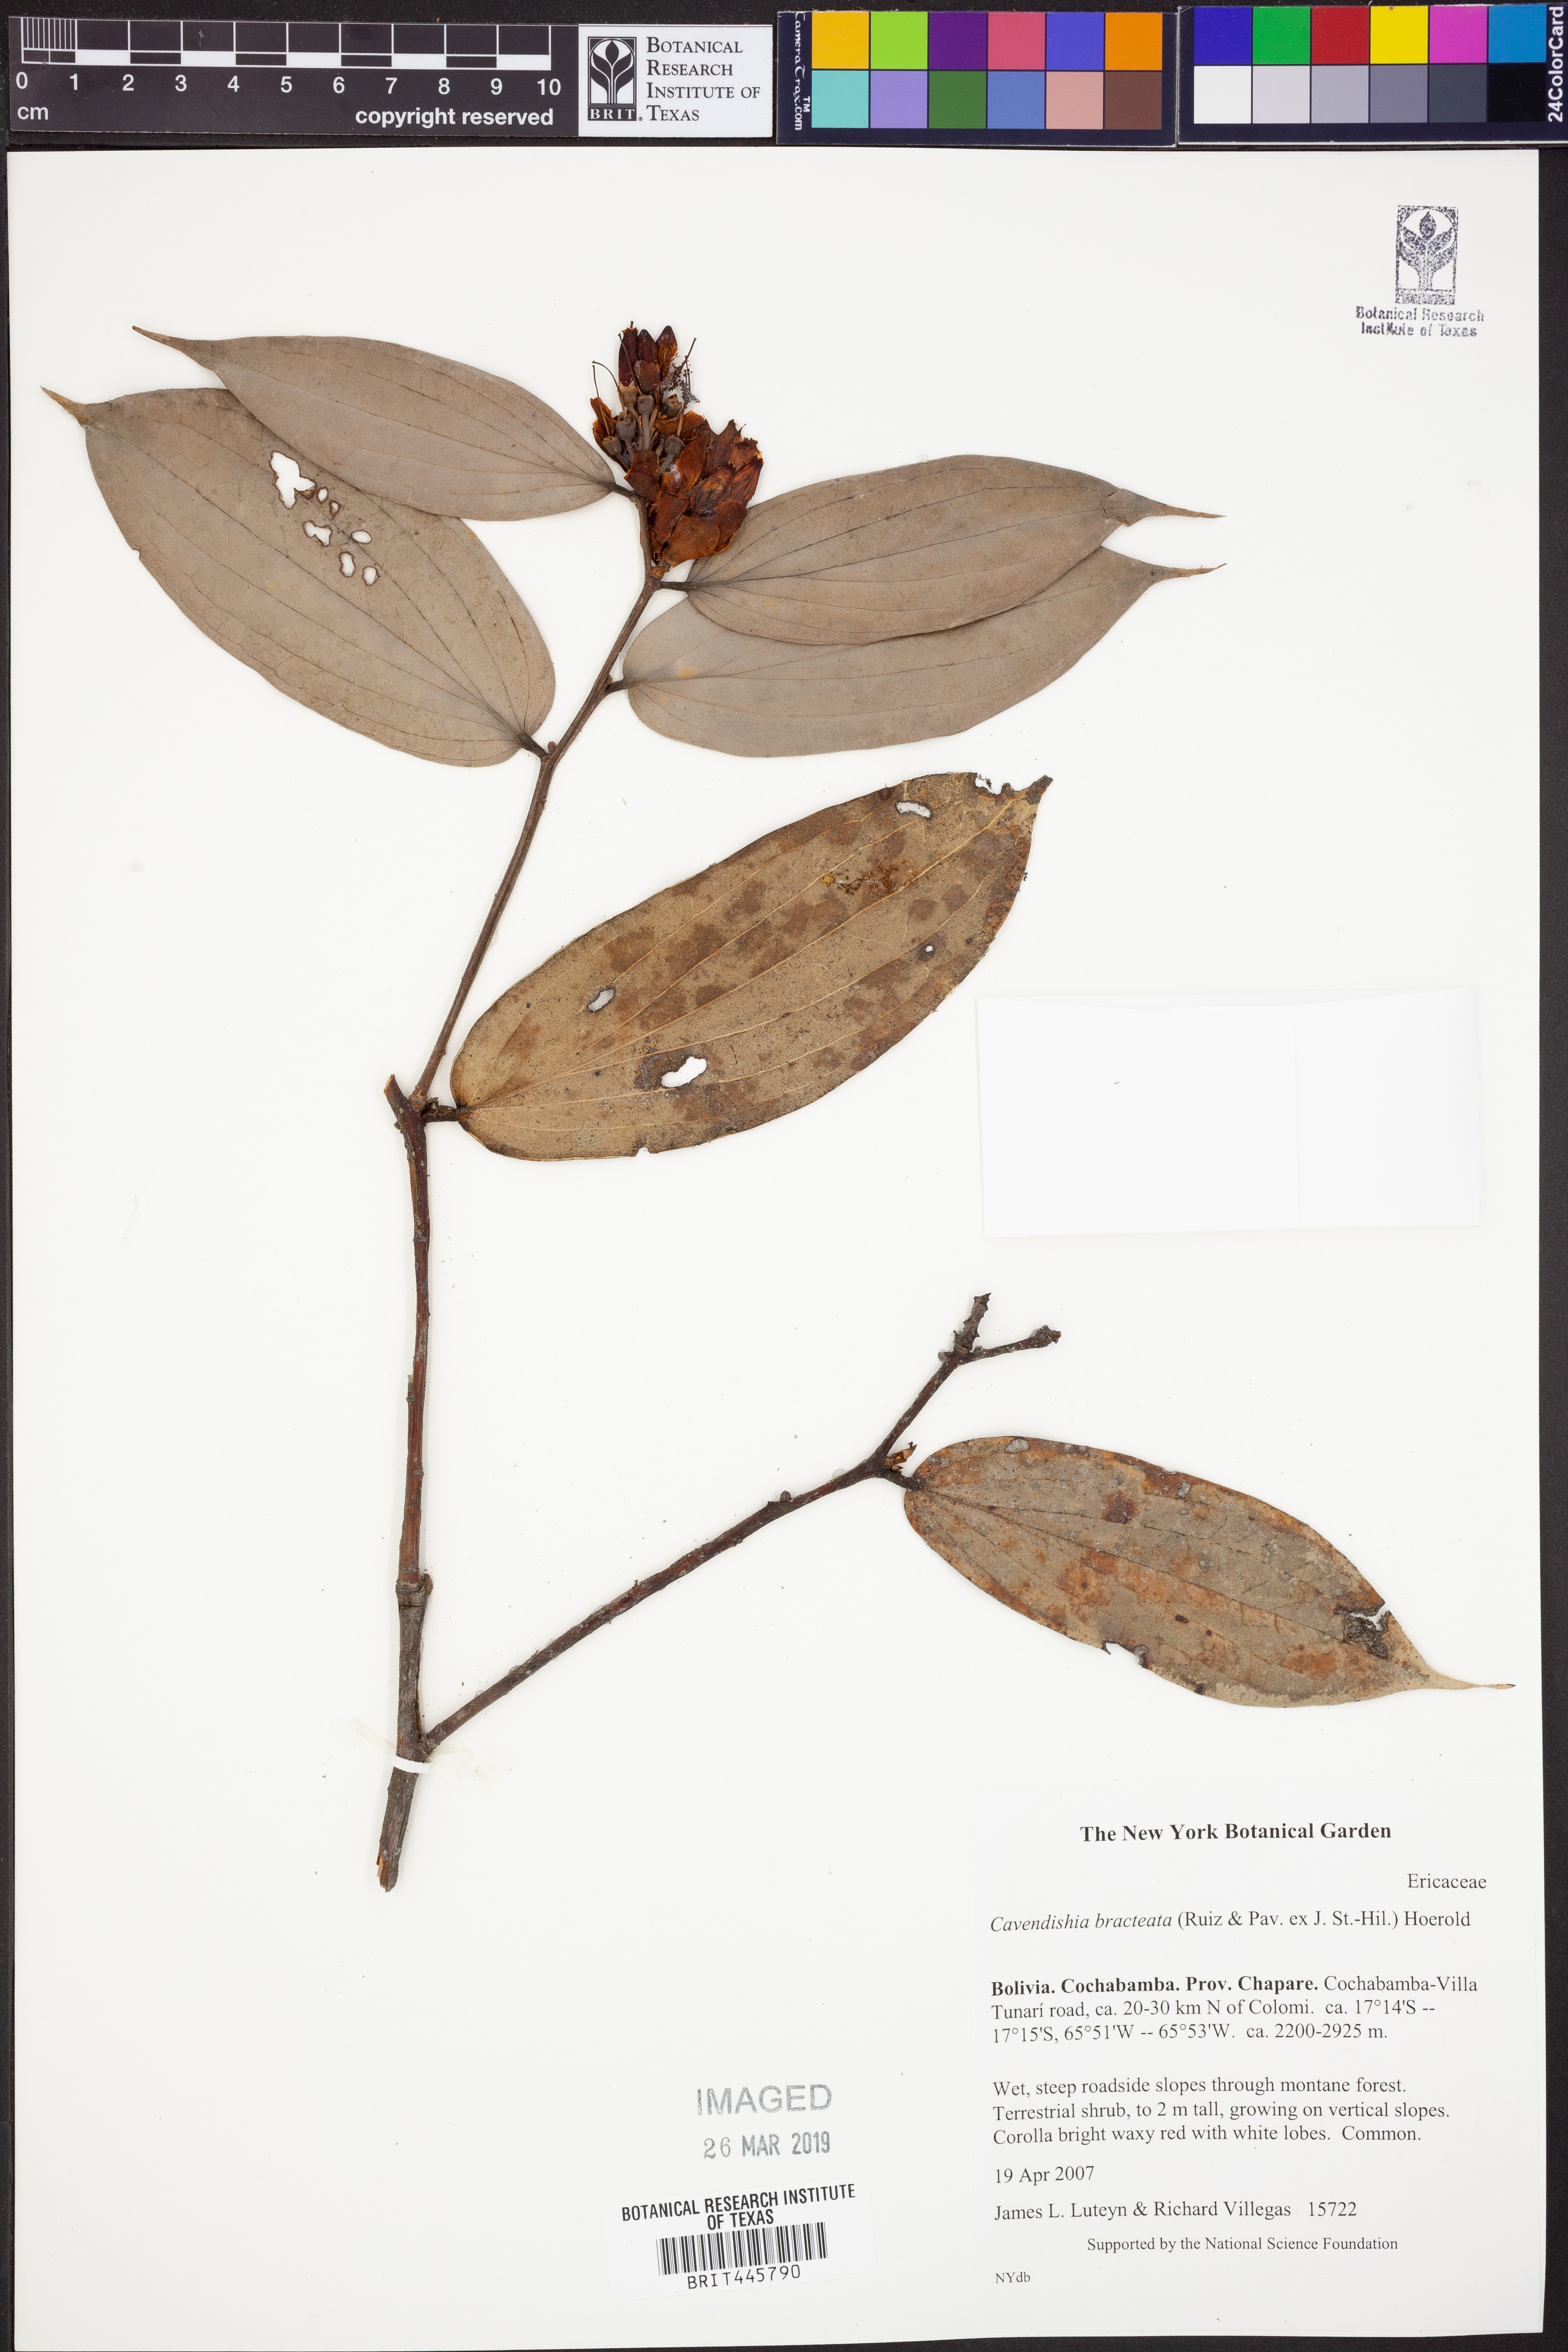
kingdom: Plantae
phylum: Tracheophyta
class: Magnoliopsida
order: Ericales
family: Ericaceae
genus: Cavendishia
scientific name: Cavendishia bracteata
